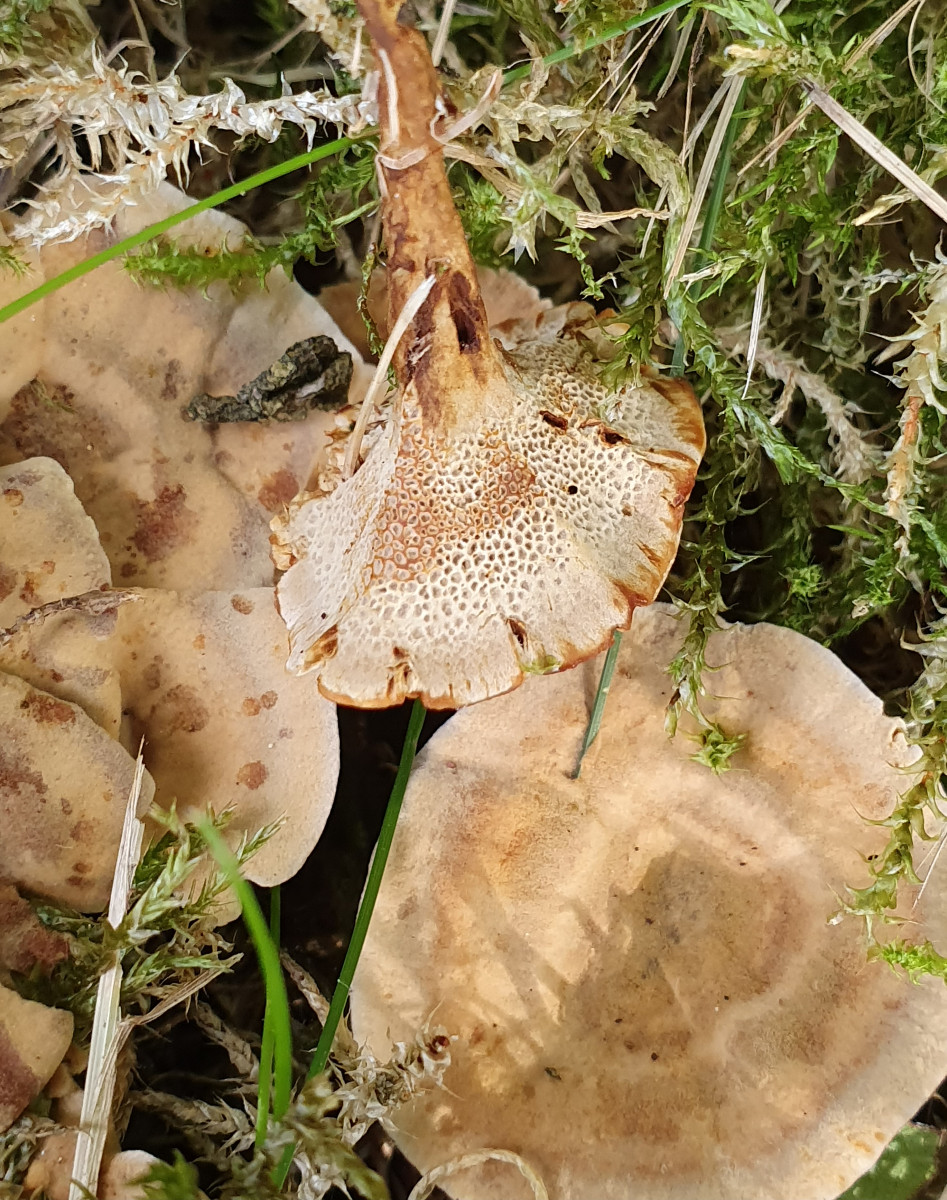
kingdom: Fungi
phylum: Basidiomycota
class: Agaricomycetes
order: Hymenochaetales
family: Hymenochaetaceae
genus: Coltricia
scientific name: Coltricia
